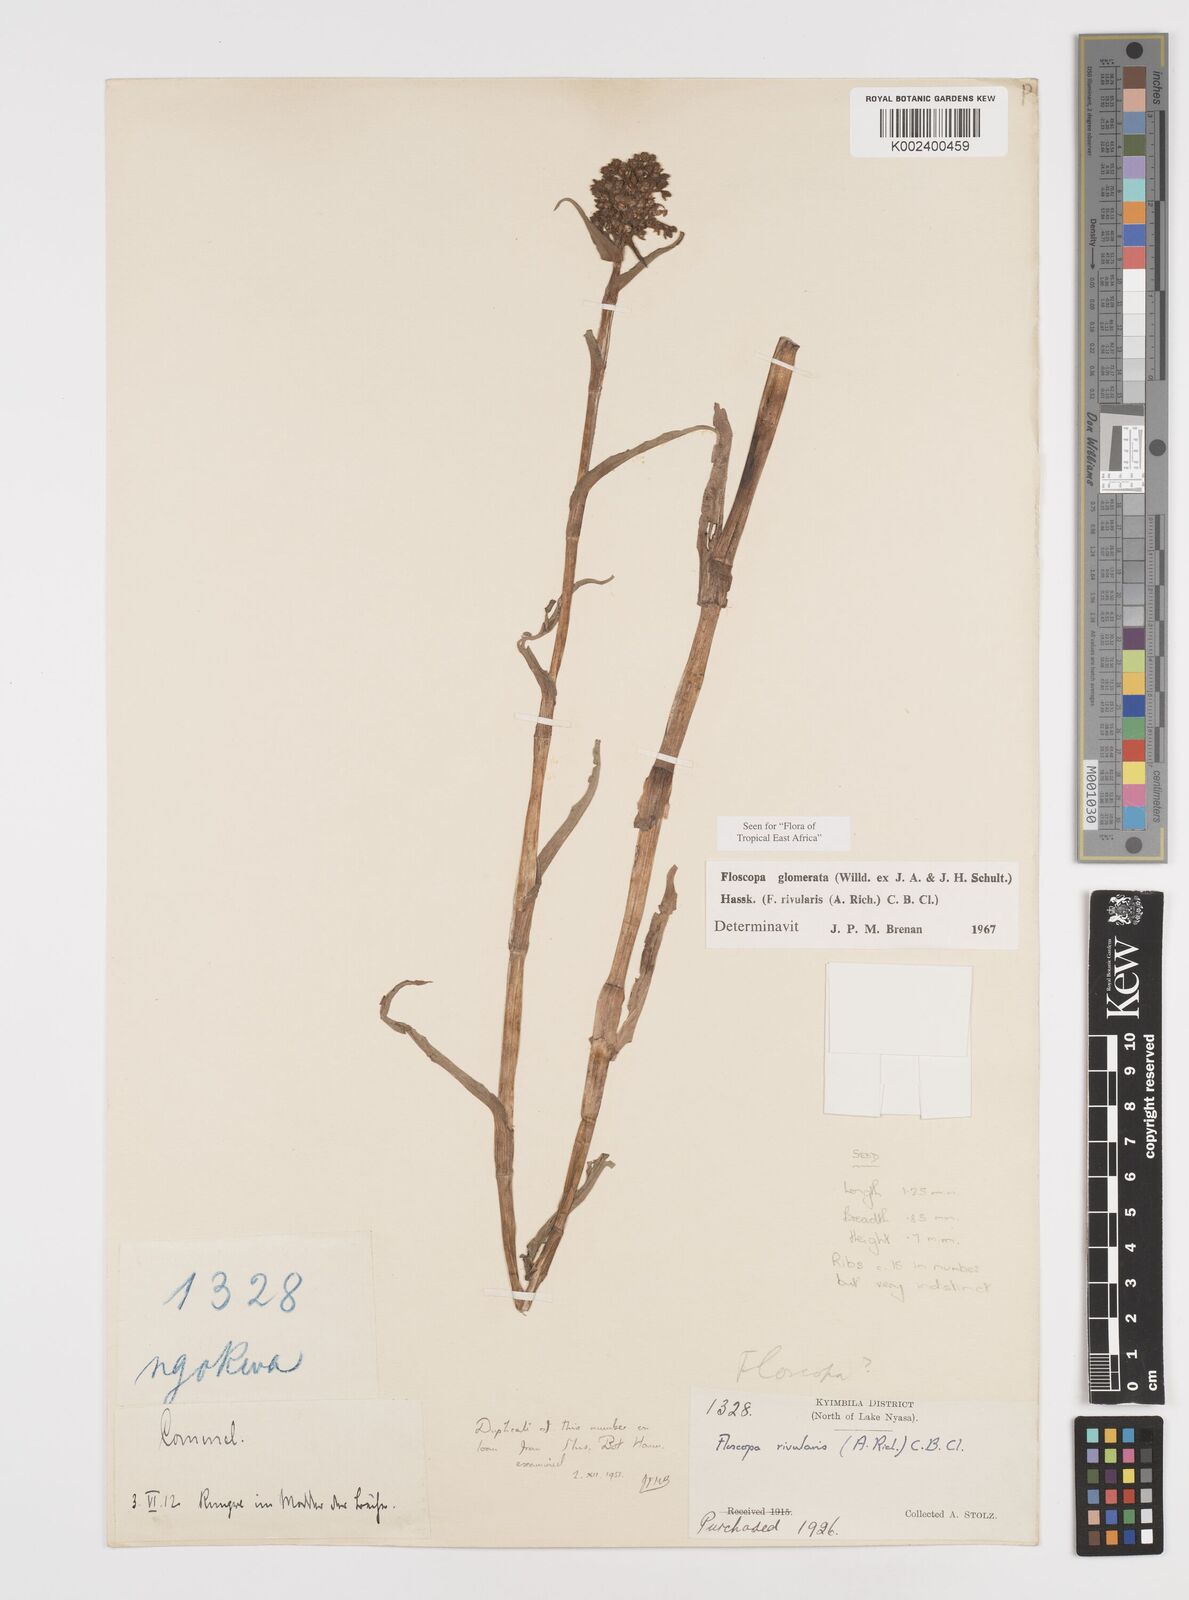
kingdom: Plantae
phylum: Tracheophyta
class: Liliopsida
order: Commelinales
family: Commelinaceae
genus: Floscopa
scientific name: Floscopa glomerata
